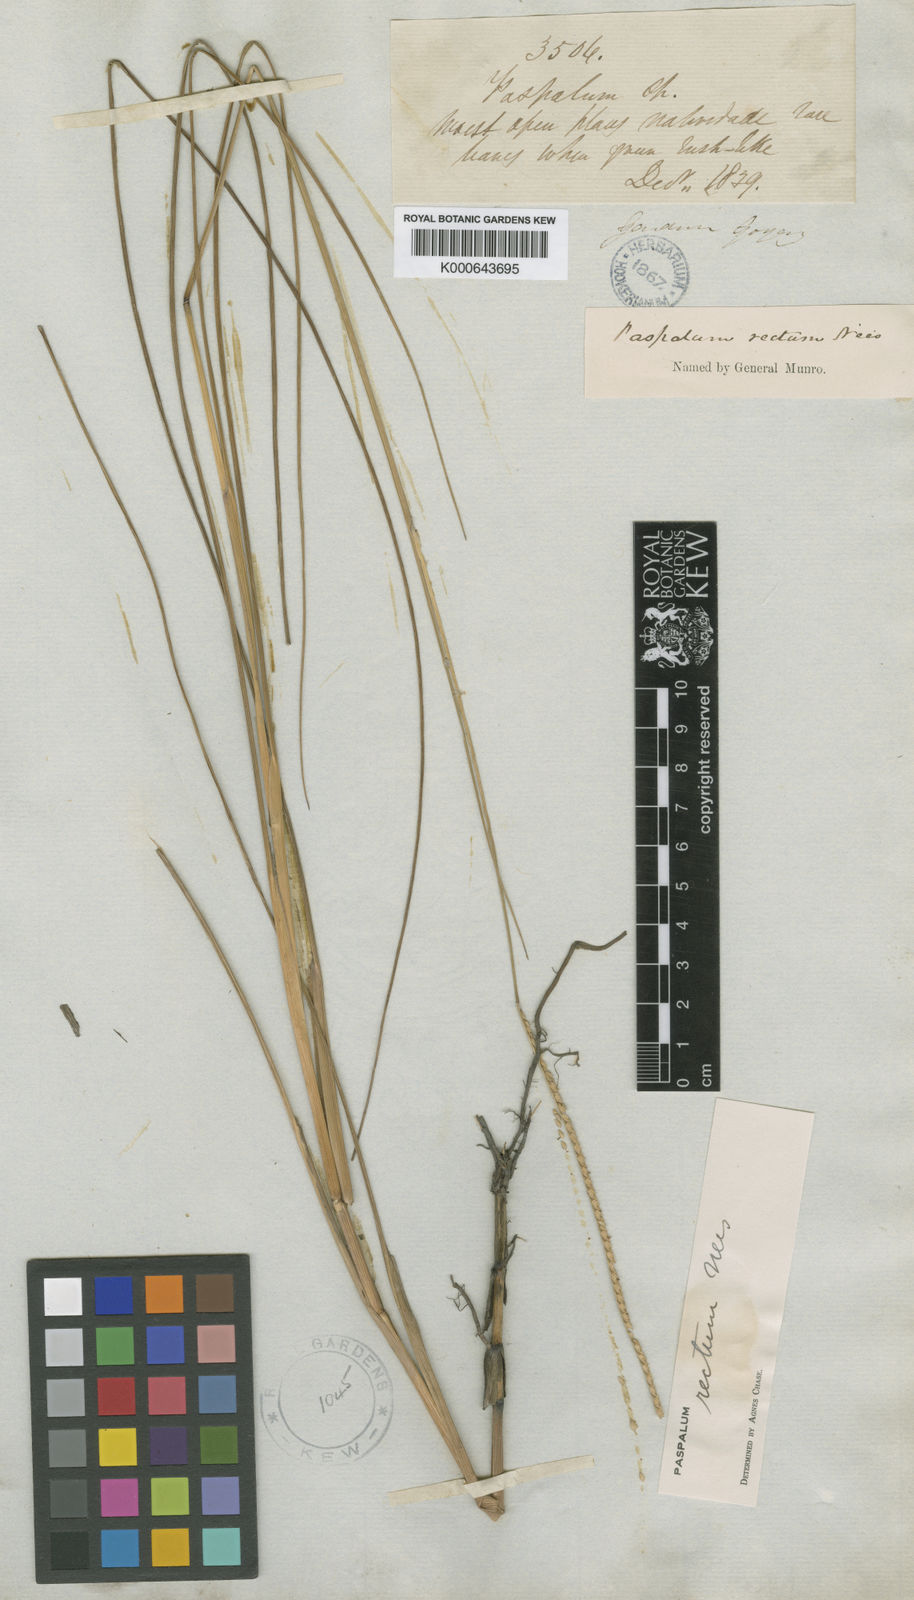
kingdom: Plantae
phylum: Tracheophyta
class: Liliopsida
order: Poales
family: Poaceae
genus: Paspalum
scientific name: Paspalum rectum
